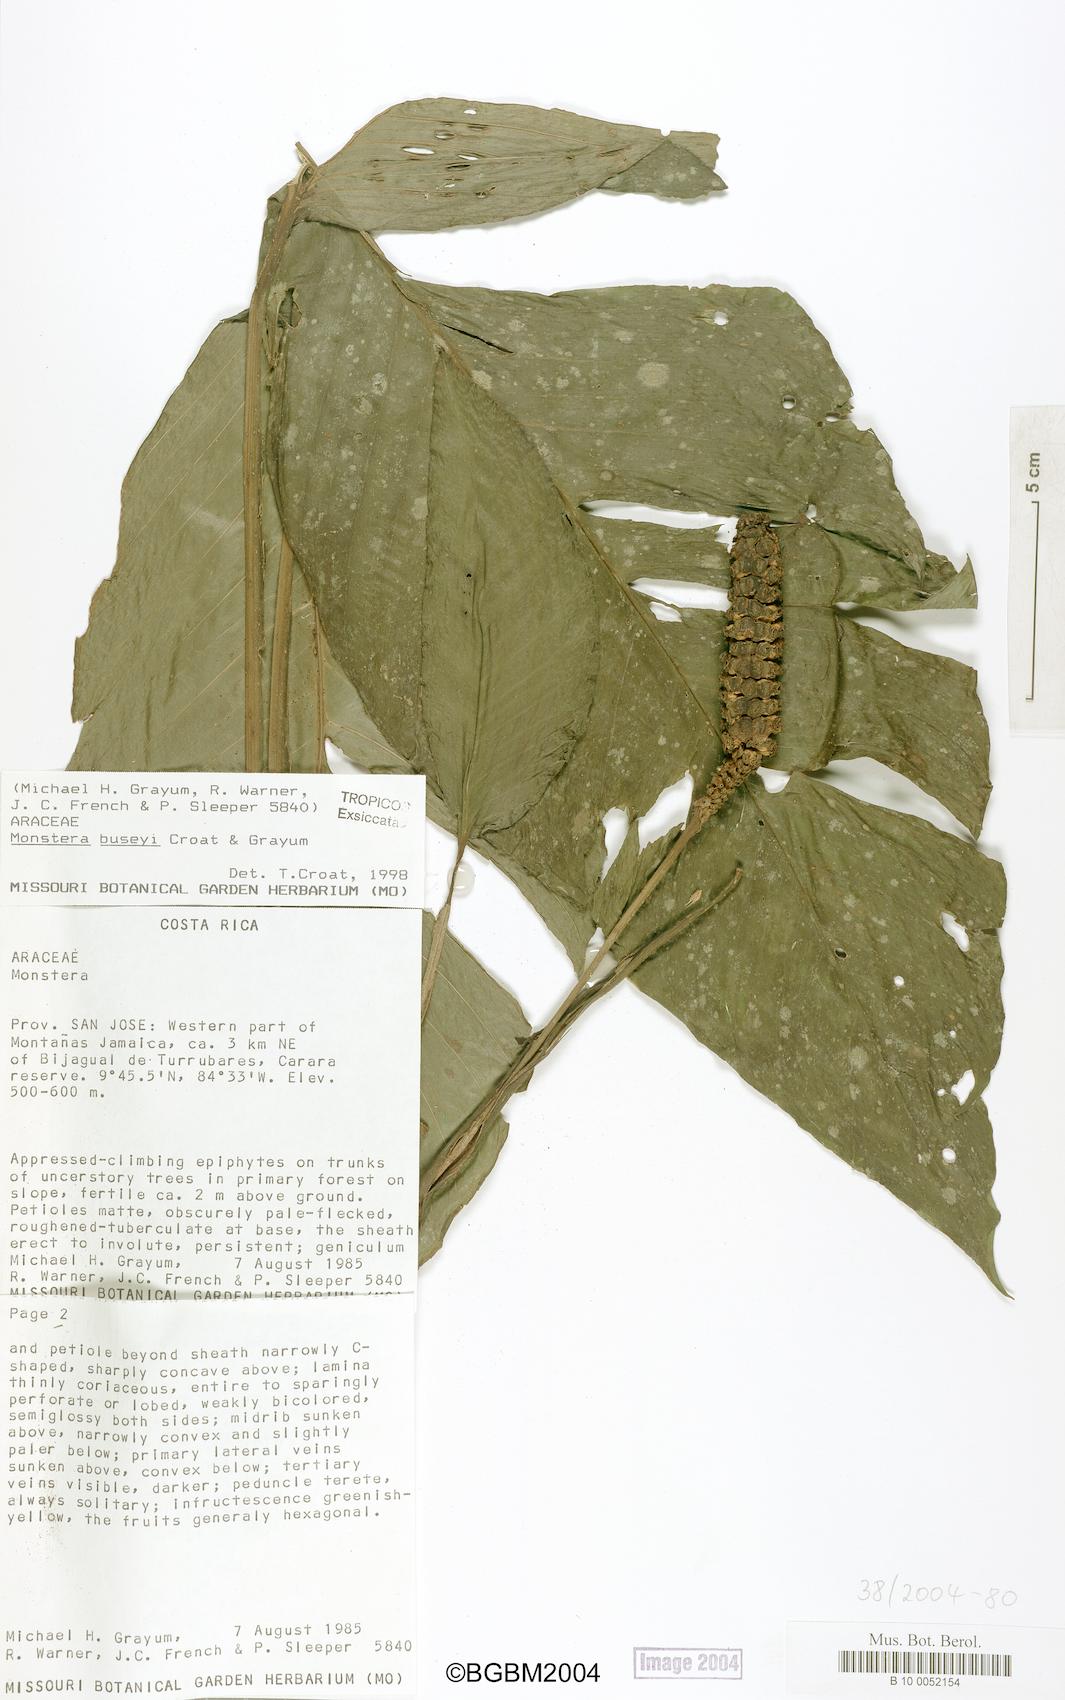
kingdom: Plantae
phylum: Tracheophyta
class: Liliopsida
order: Alismatales
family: Araceae
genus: Monstera
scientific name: Monstera buseyi
